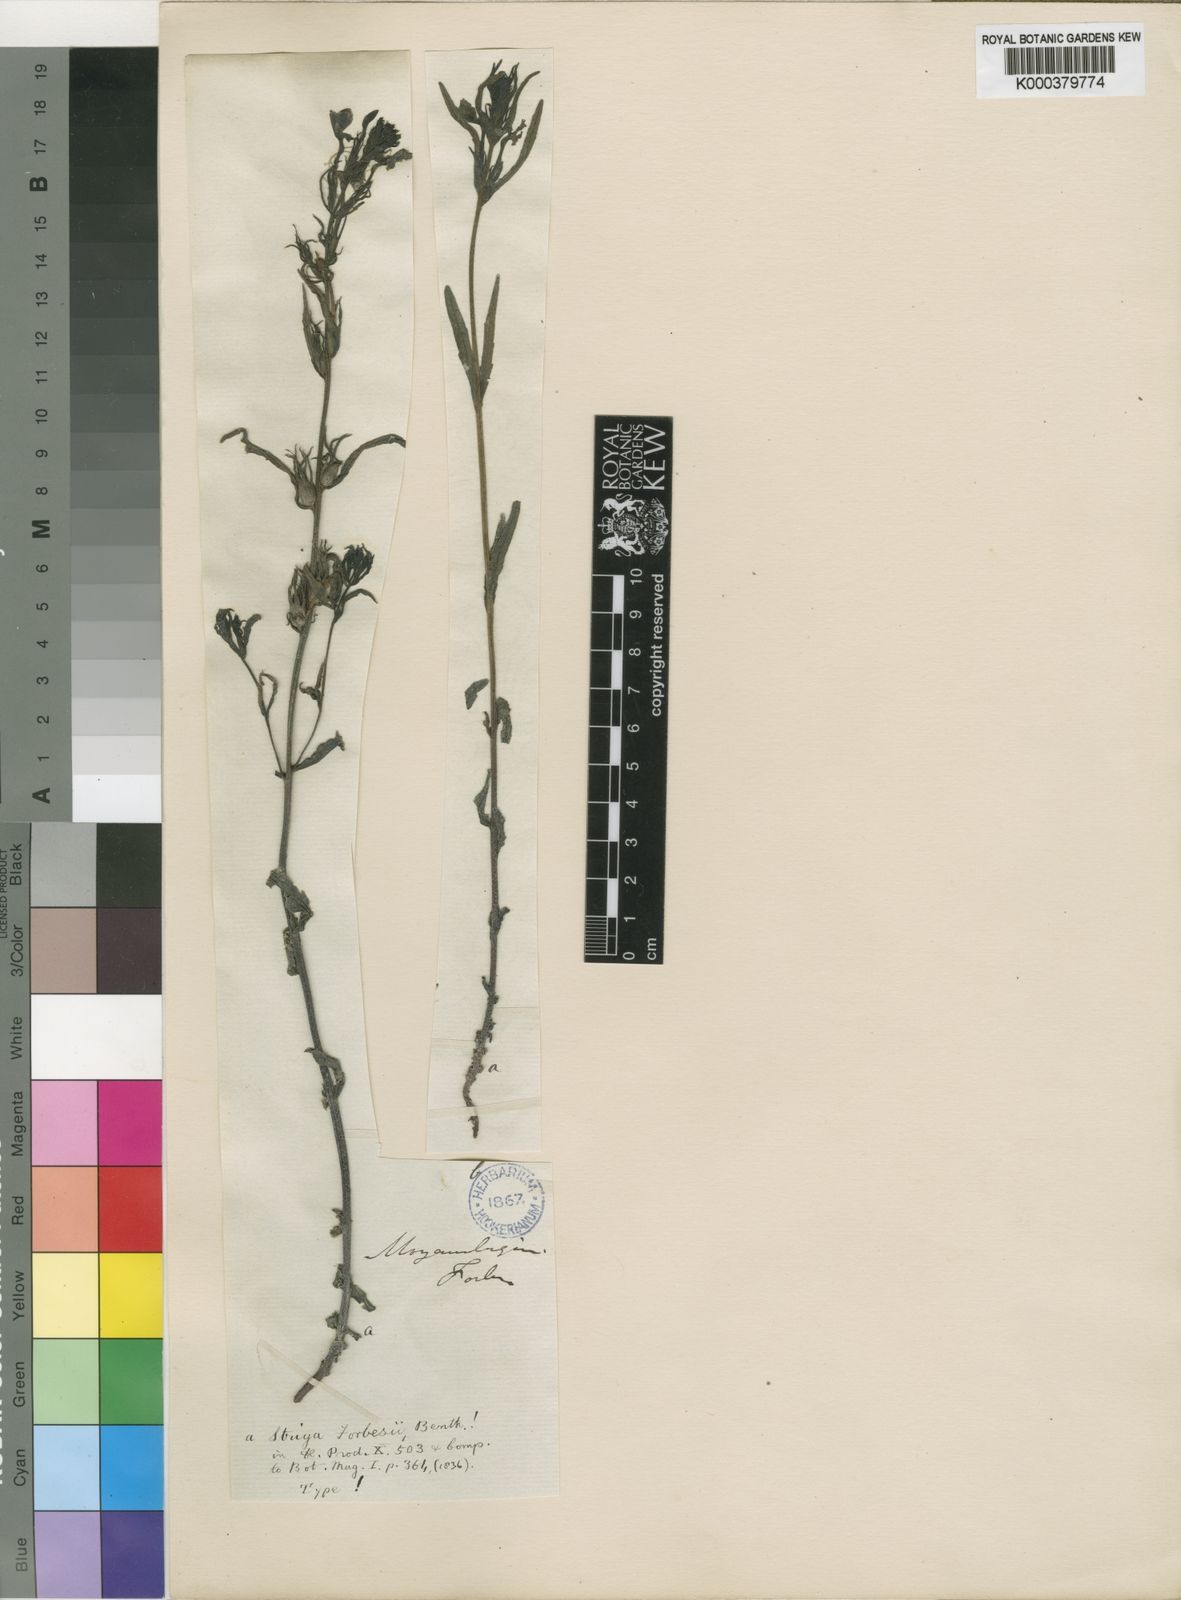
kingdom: Plantae
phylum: Tracheophyta
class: Magnoliopsida
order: Lamiales
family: Orobanchaceae
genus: Striga
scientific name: Striga forbesii
